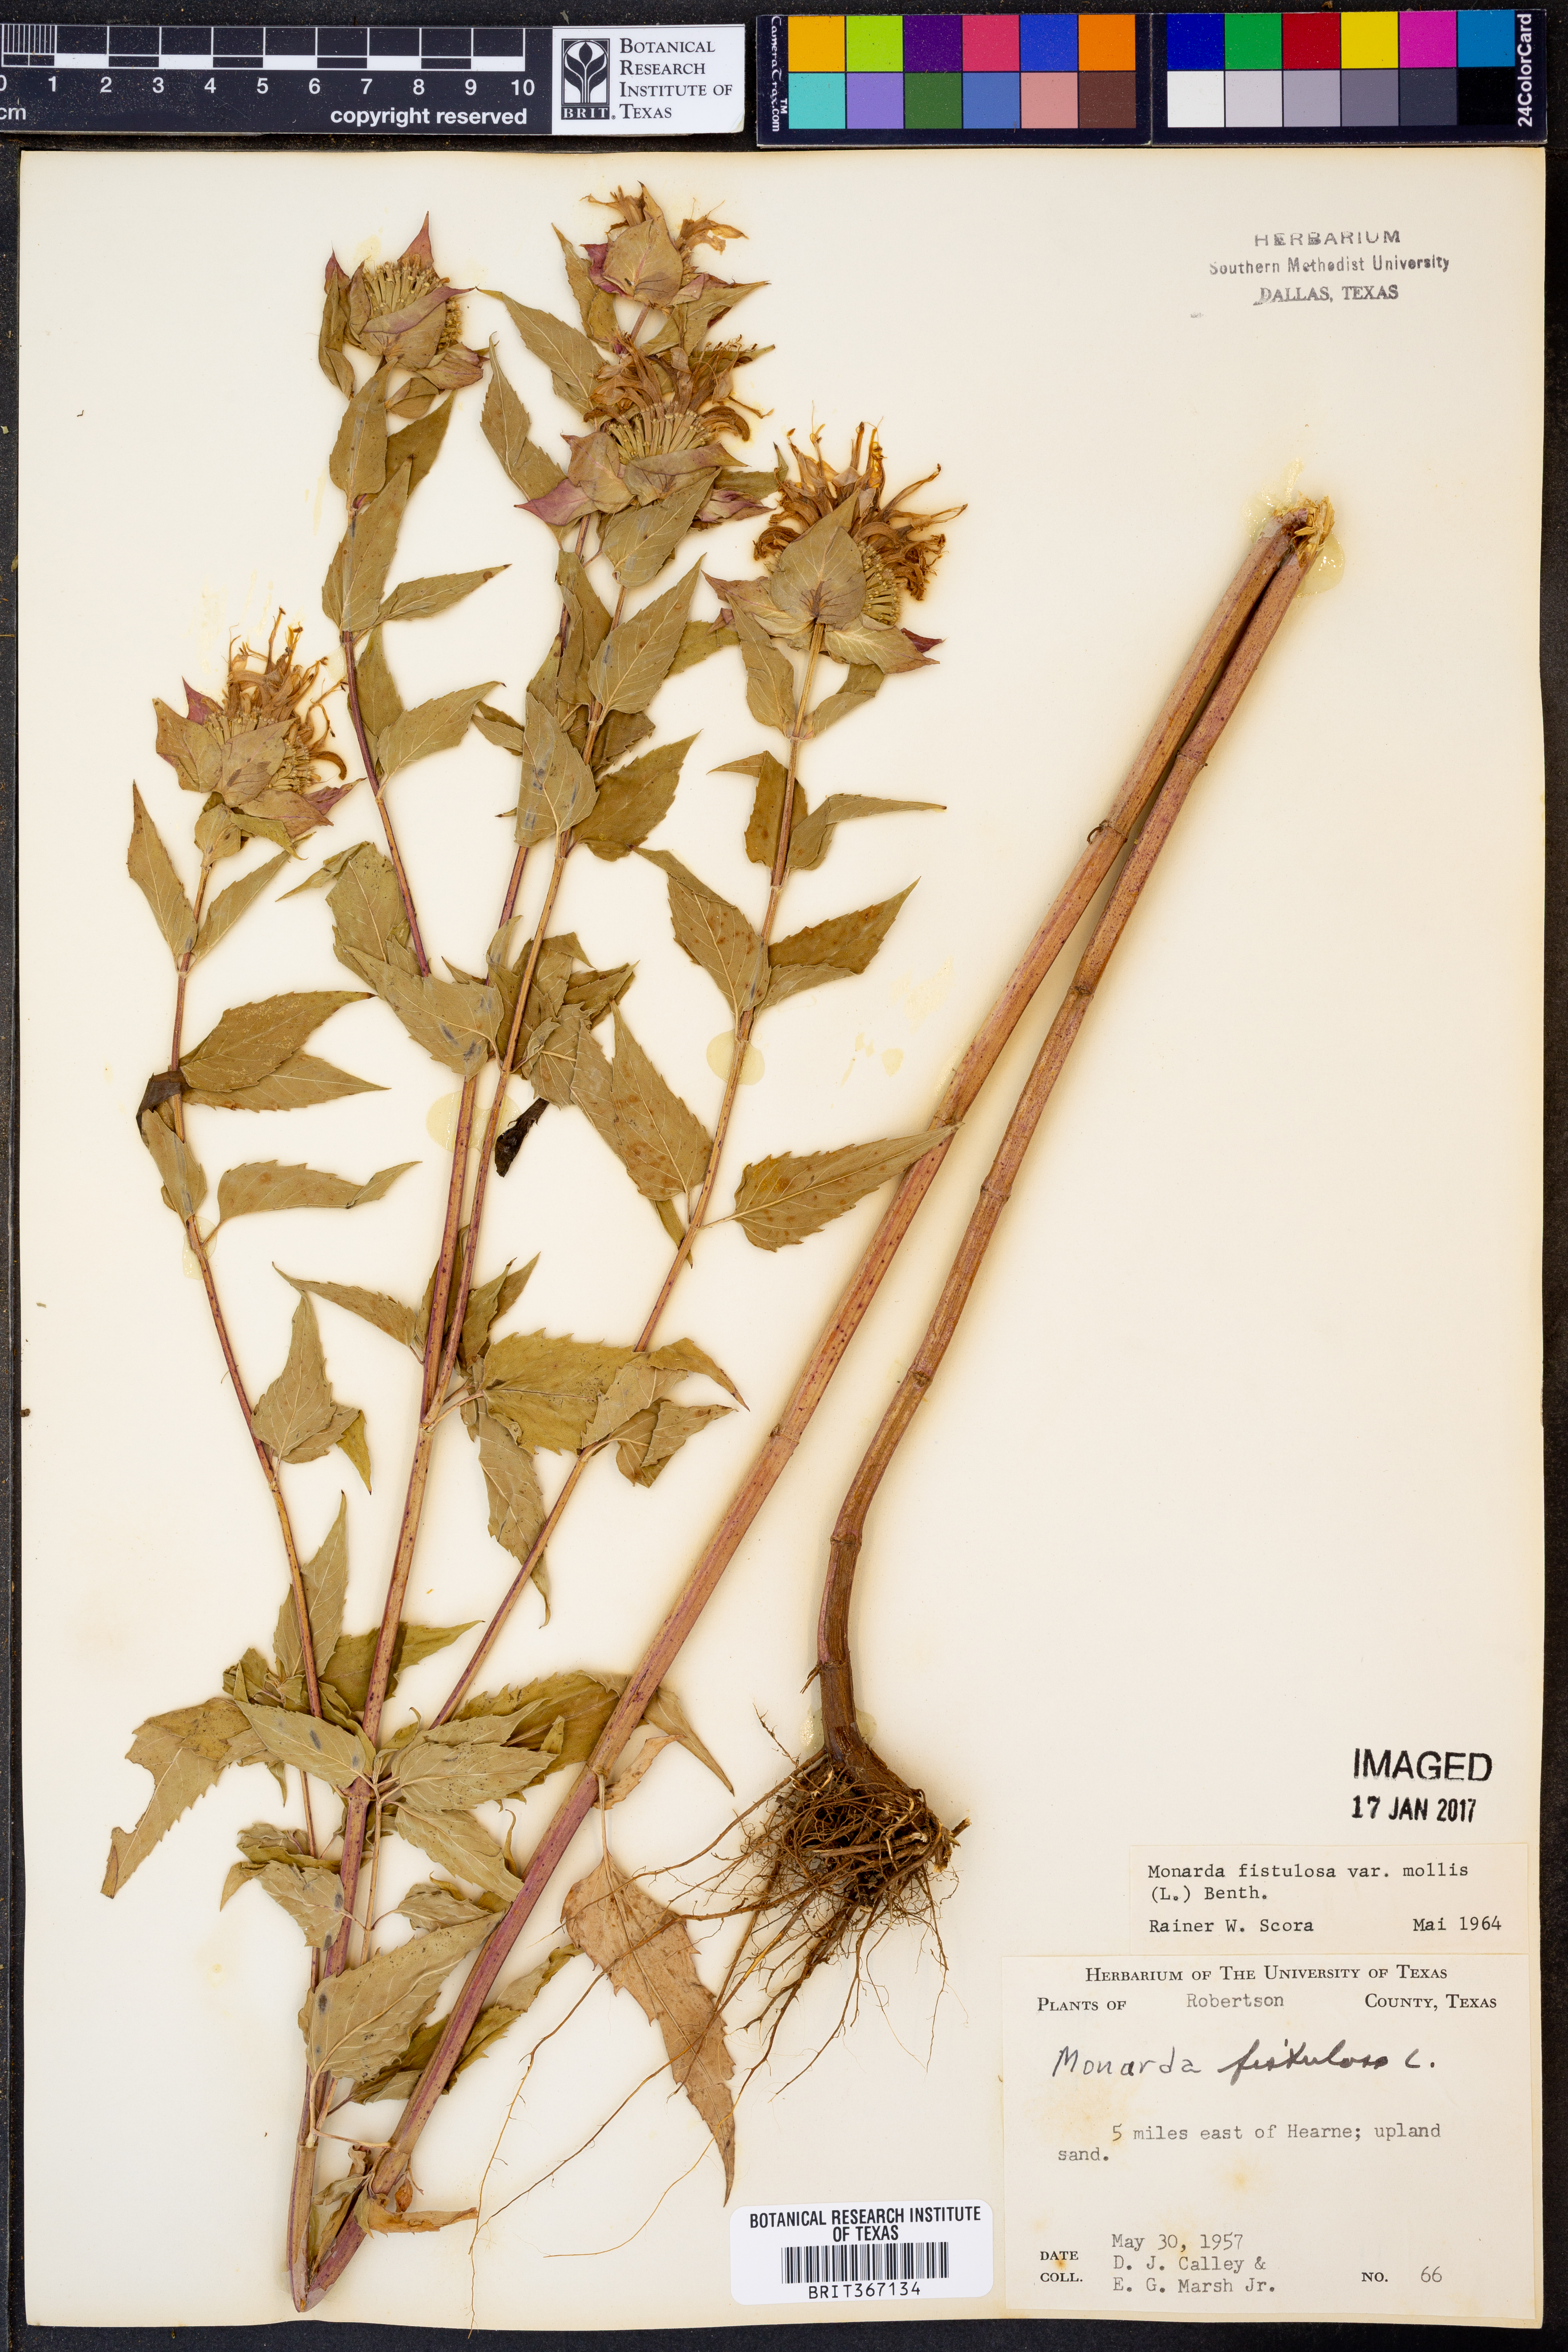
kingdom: Plantae
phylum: Tracheophyta
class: Magnoliopsida
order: Lamiales
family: Lamiaceae
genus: Monarda
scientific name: Monarda fistulosa
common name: Purple beebalm
